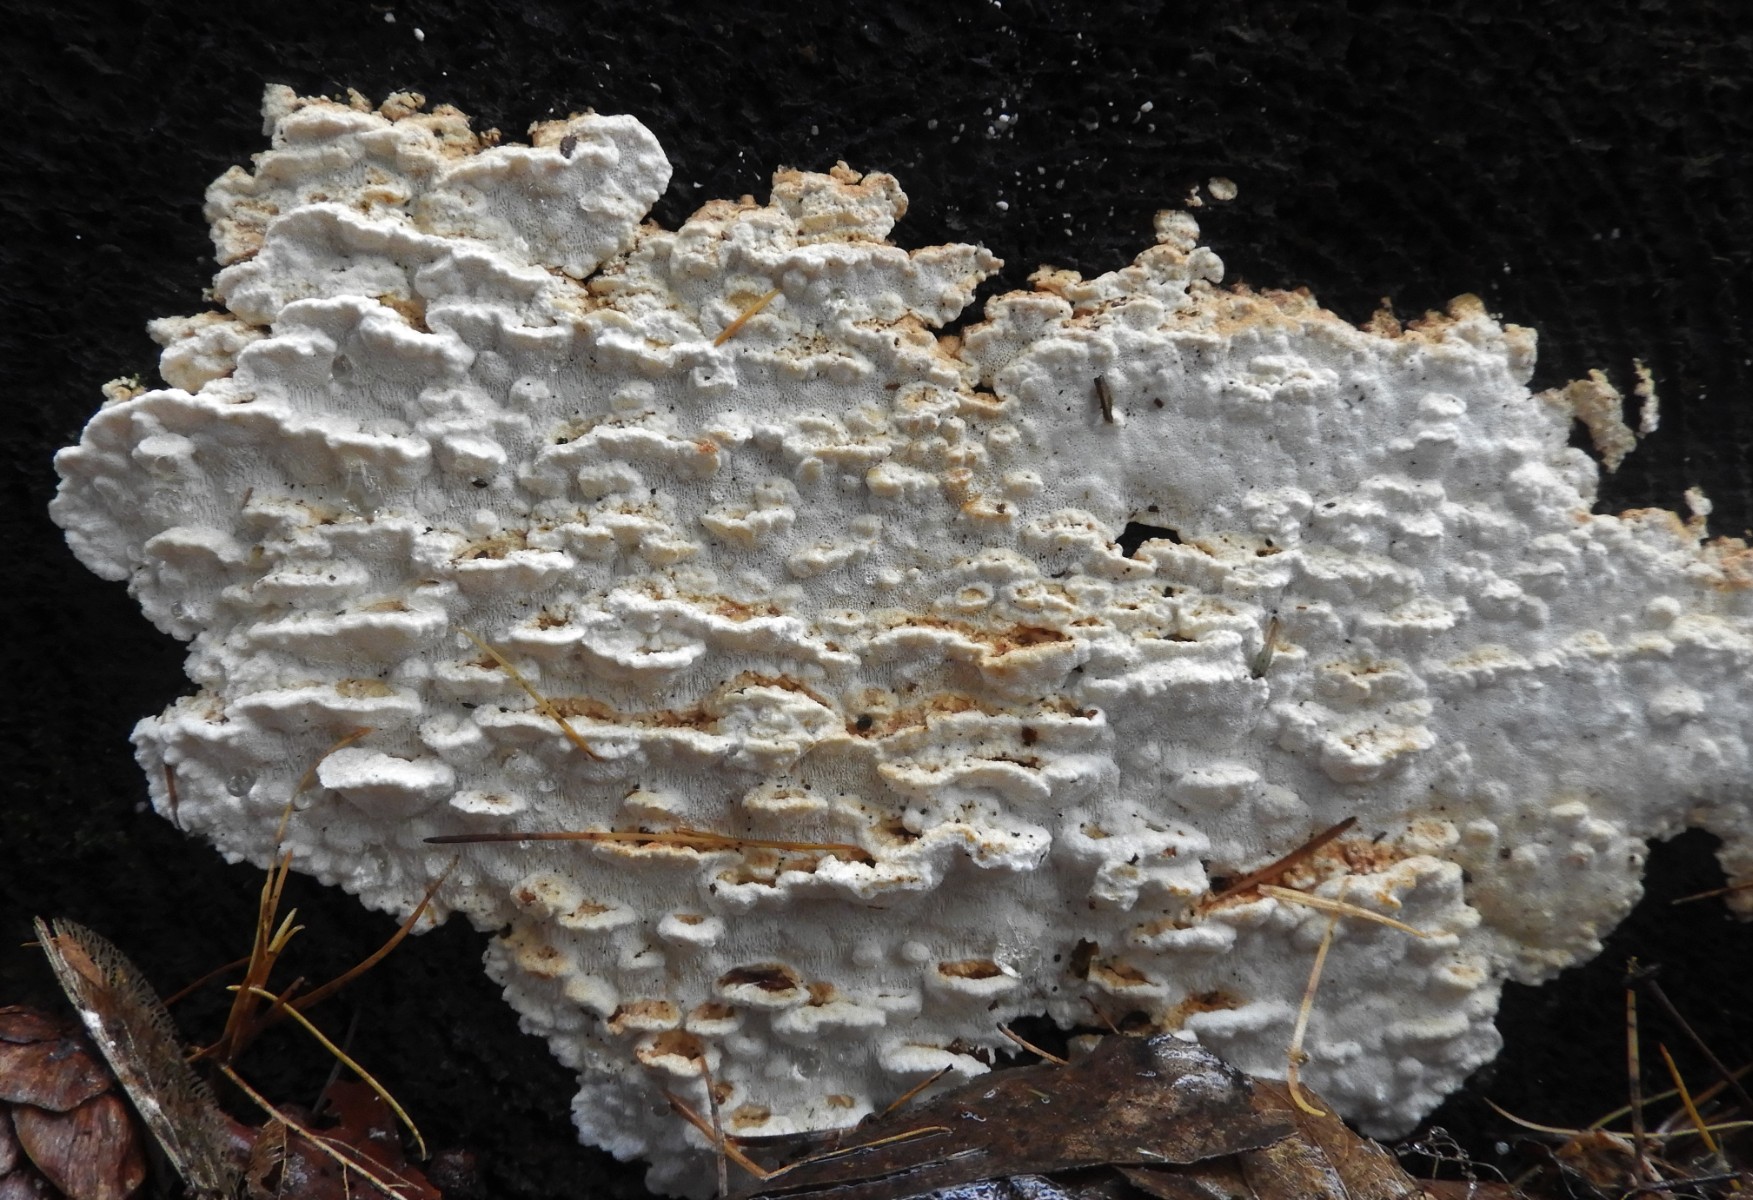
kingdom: Fungi
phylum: Basidiomycota
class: Agaricomycetes
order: Polyporales
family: Fomitopsidaceae
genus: Neoantrodia
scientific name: Neoantrodia serialis
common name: række-sejporesvamp
